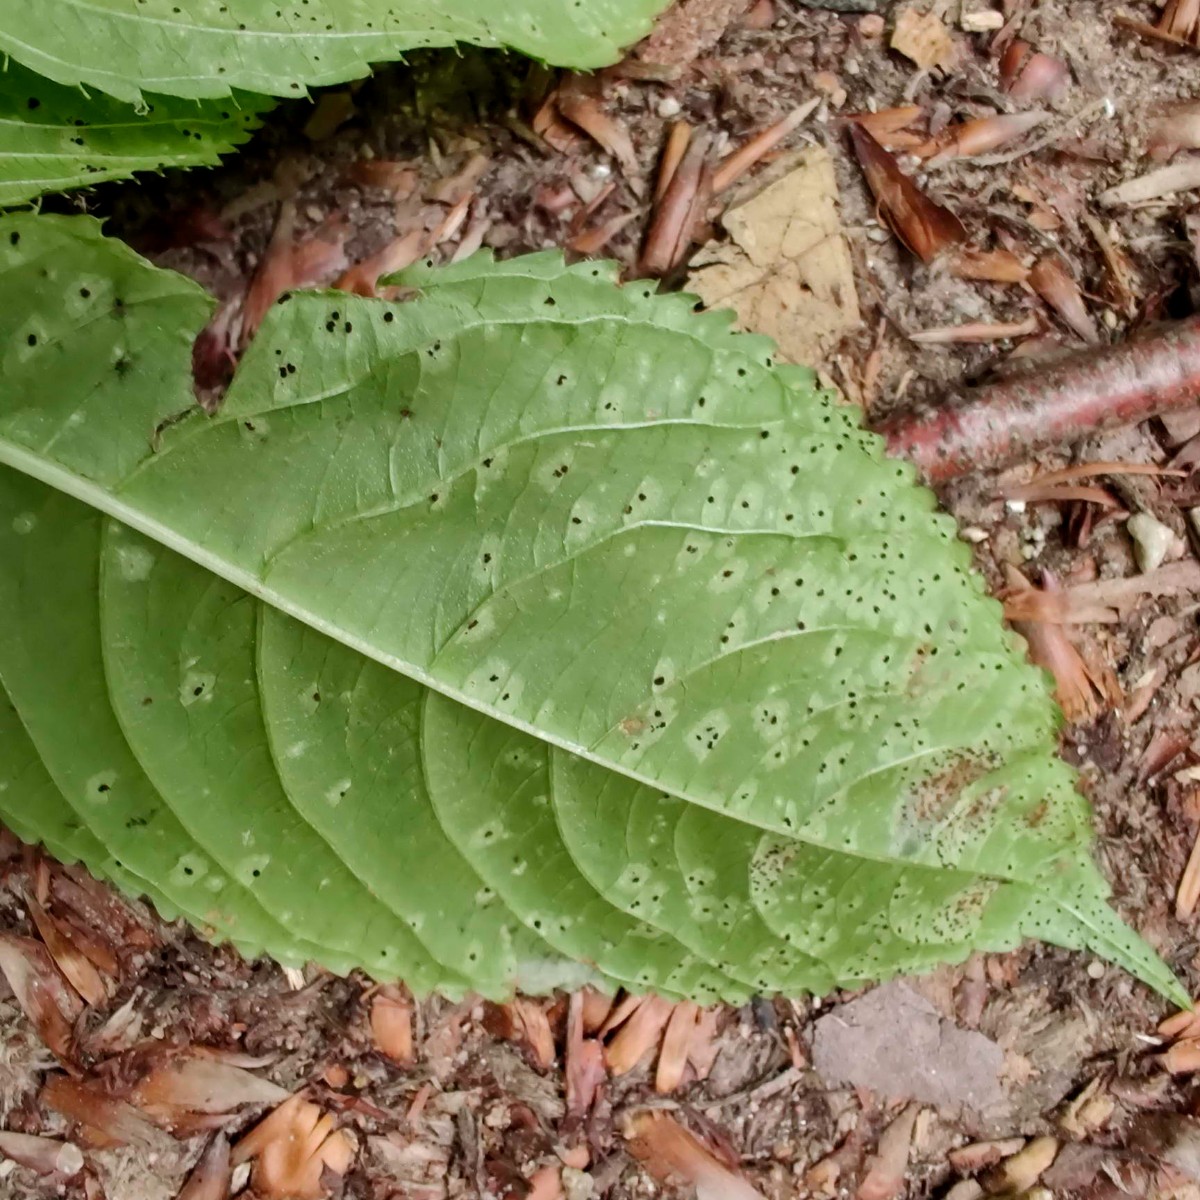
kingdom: Fungi
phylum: Basidiomycota
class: Pucciniomycetes
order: Pucciniales
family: Pucciniaceae
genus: Puccinia
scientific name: Puccinia komarovii
